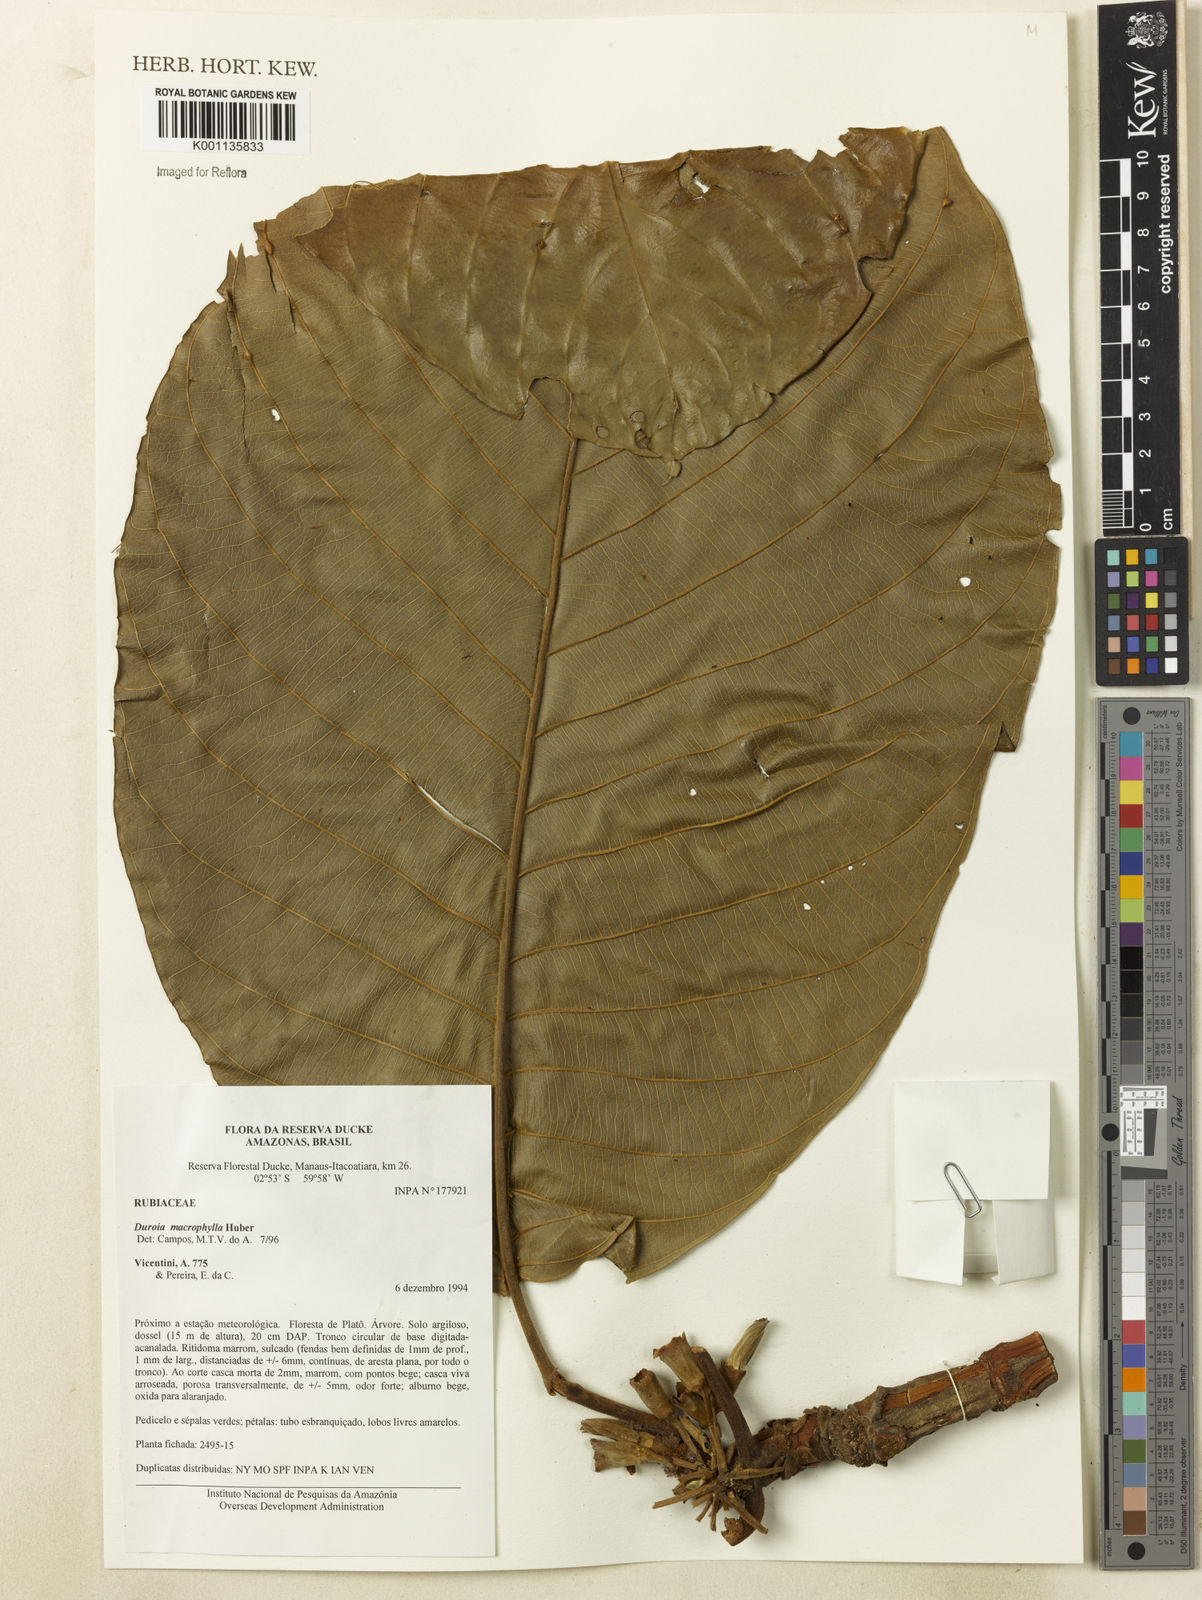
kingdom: Plantae
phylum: Tracheophyta
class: Magnoliopsida
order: Gentianales
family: Rubiaceae
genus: Duroia
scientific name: Duroia macrophylla
